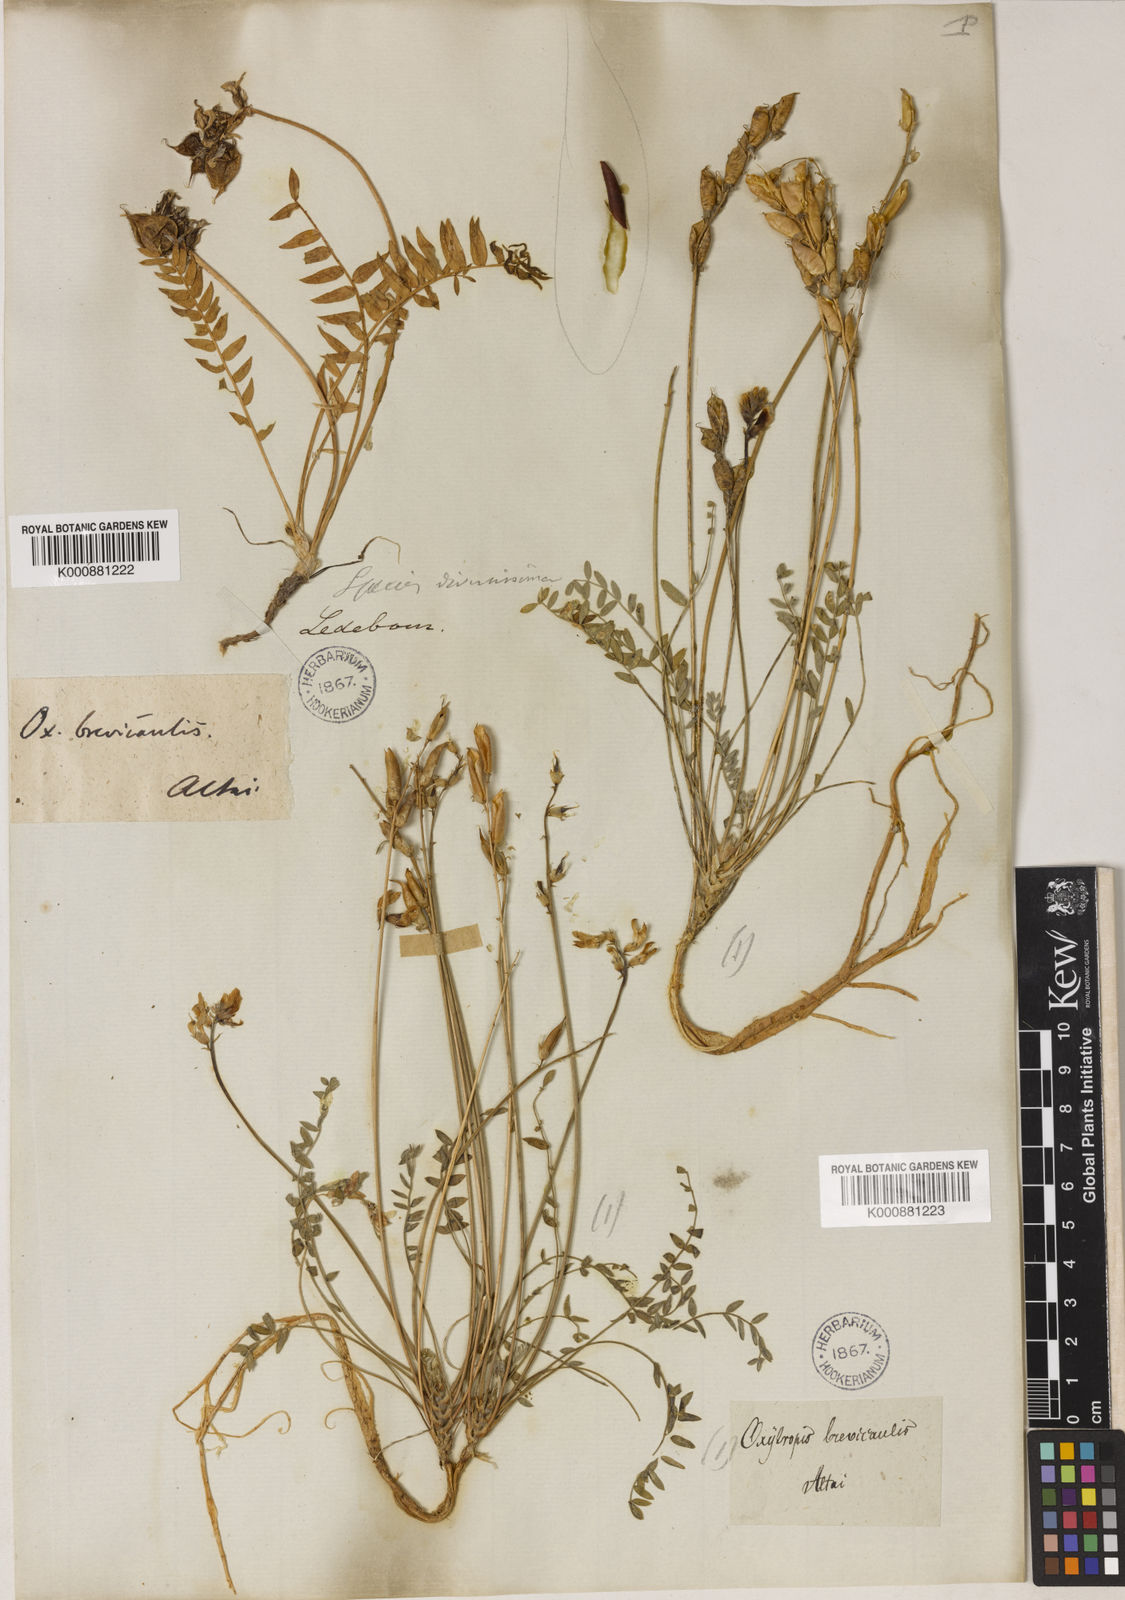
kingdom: Plantae
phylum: Tracheophyta
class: Magnoliopsida
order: Fabales
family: Fabaceae
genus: Oxytropis
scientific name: Oxytropis brevicaulis
